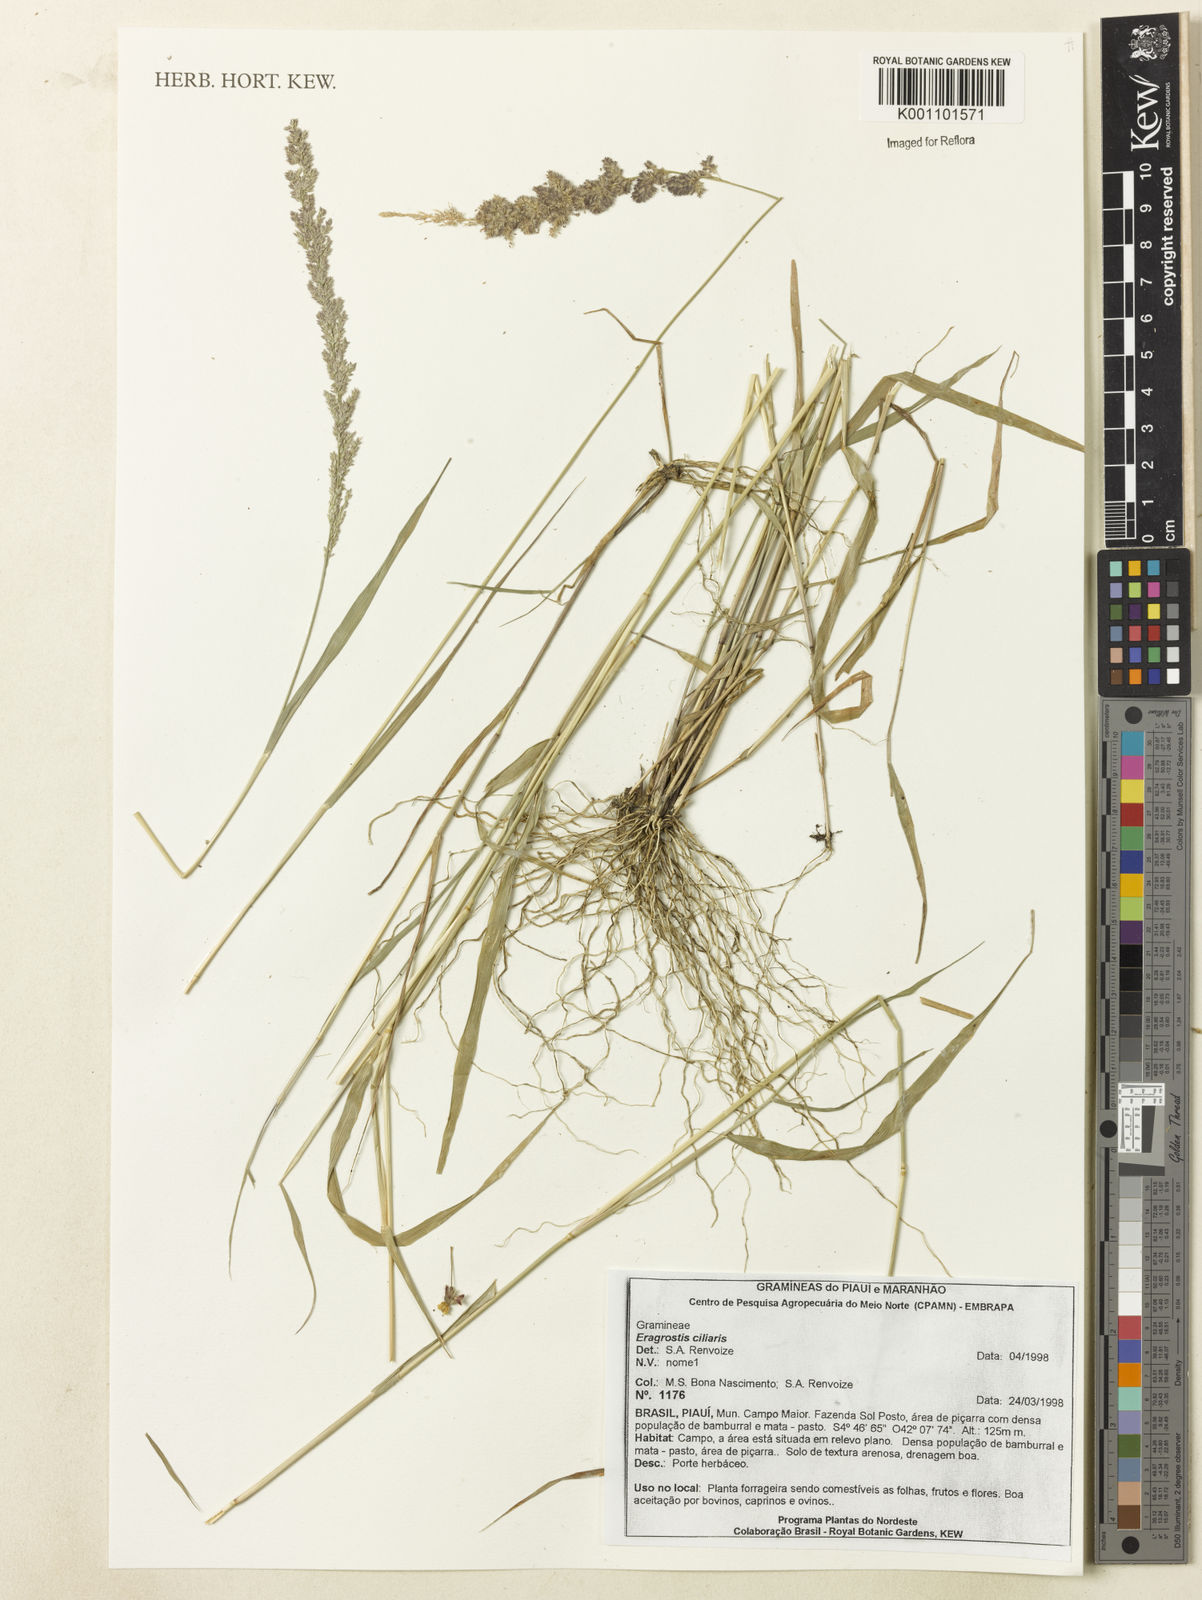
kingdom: Plantae
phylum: Tracheophyta
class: Liliopsida
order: Poales
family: Poaceae
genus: Eragrostis
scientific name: Eragrostis ciliaris
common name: Gophertail lovegrass
